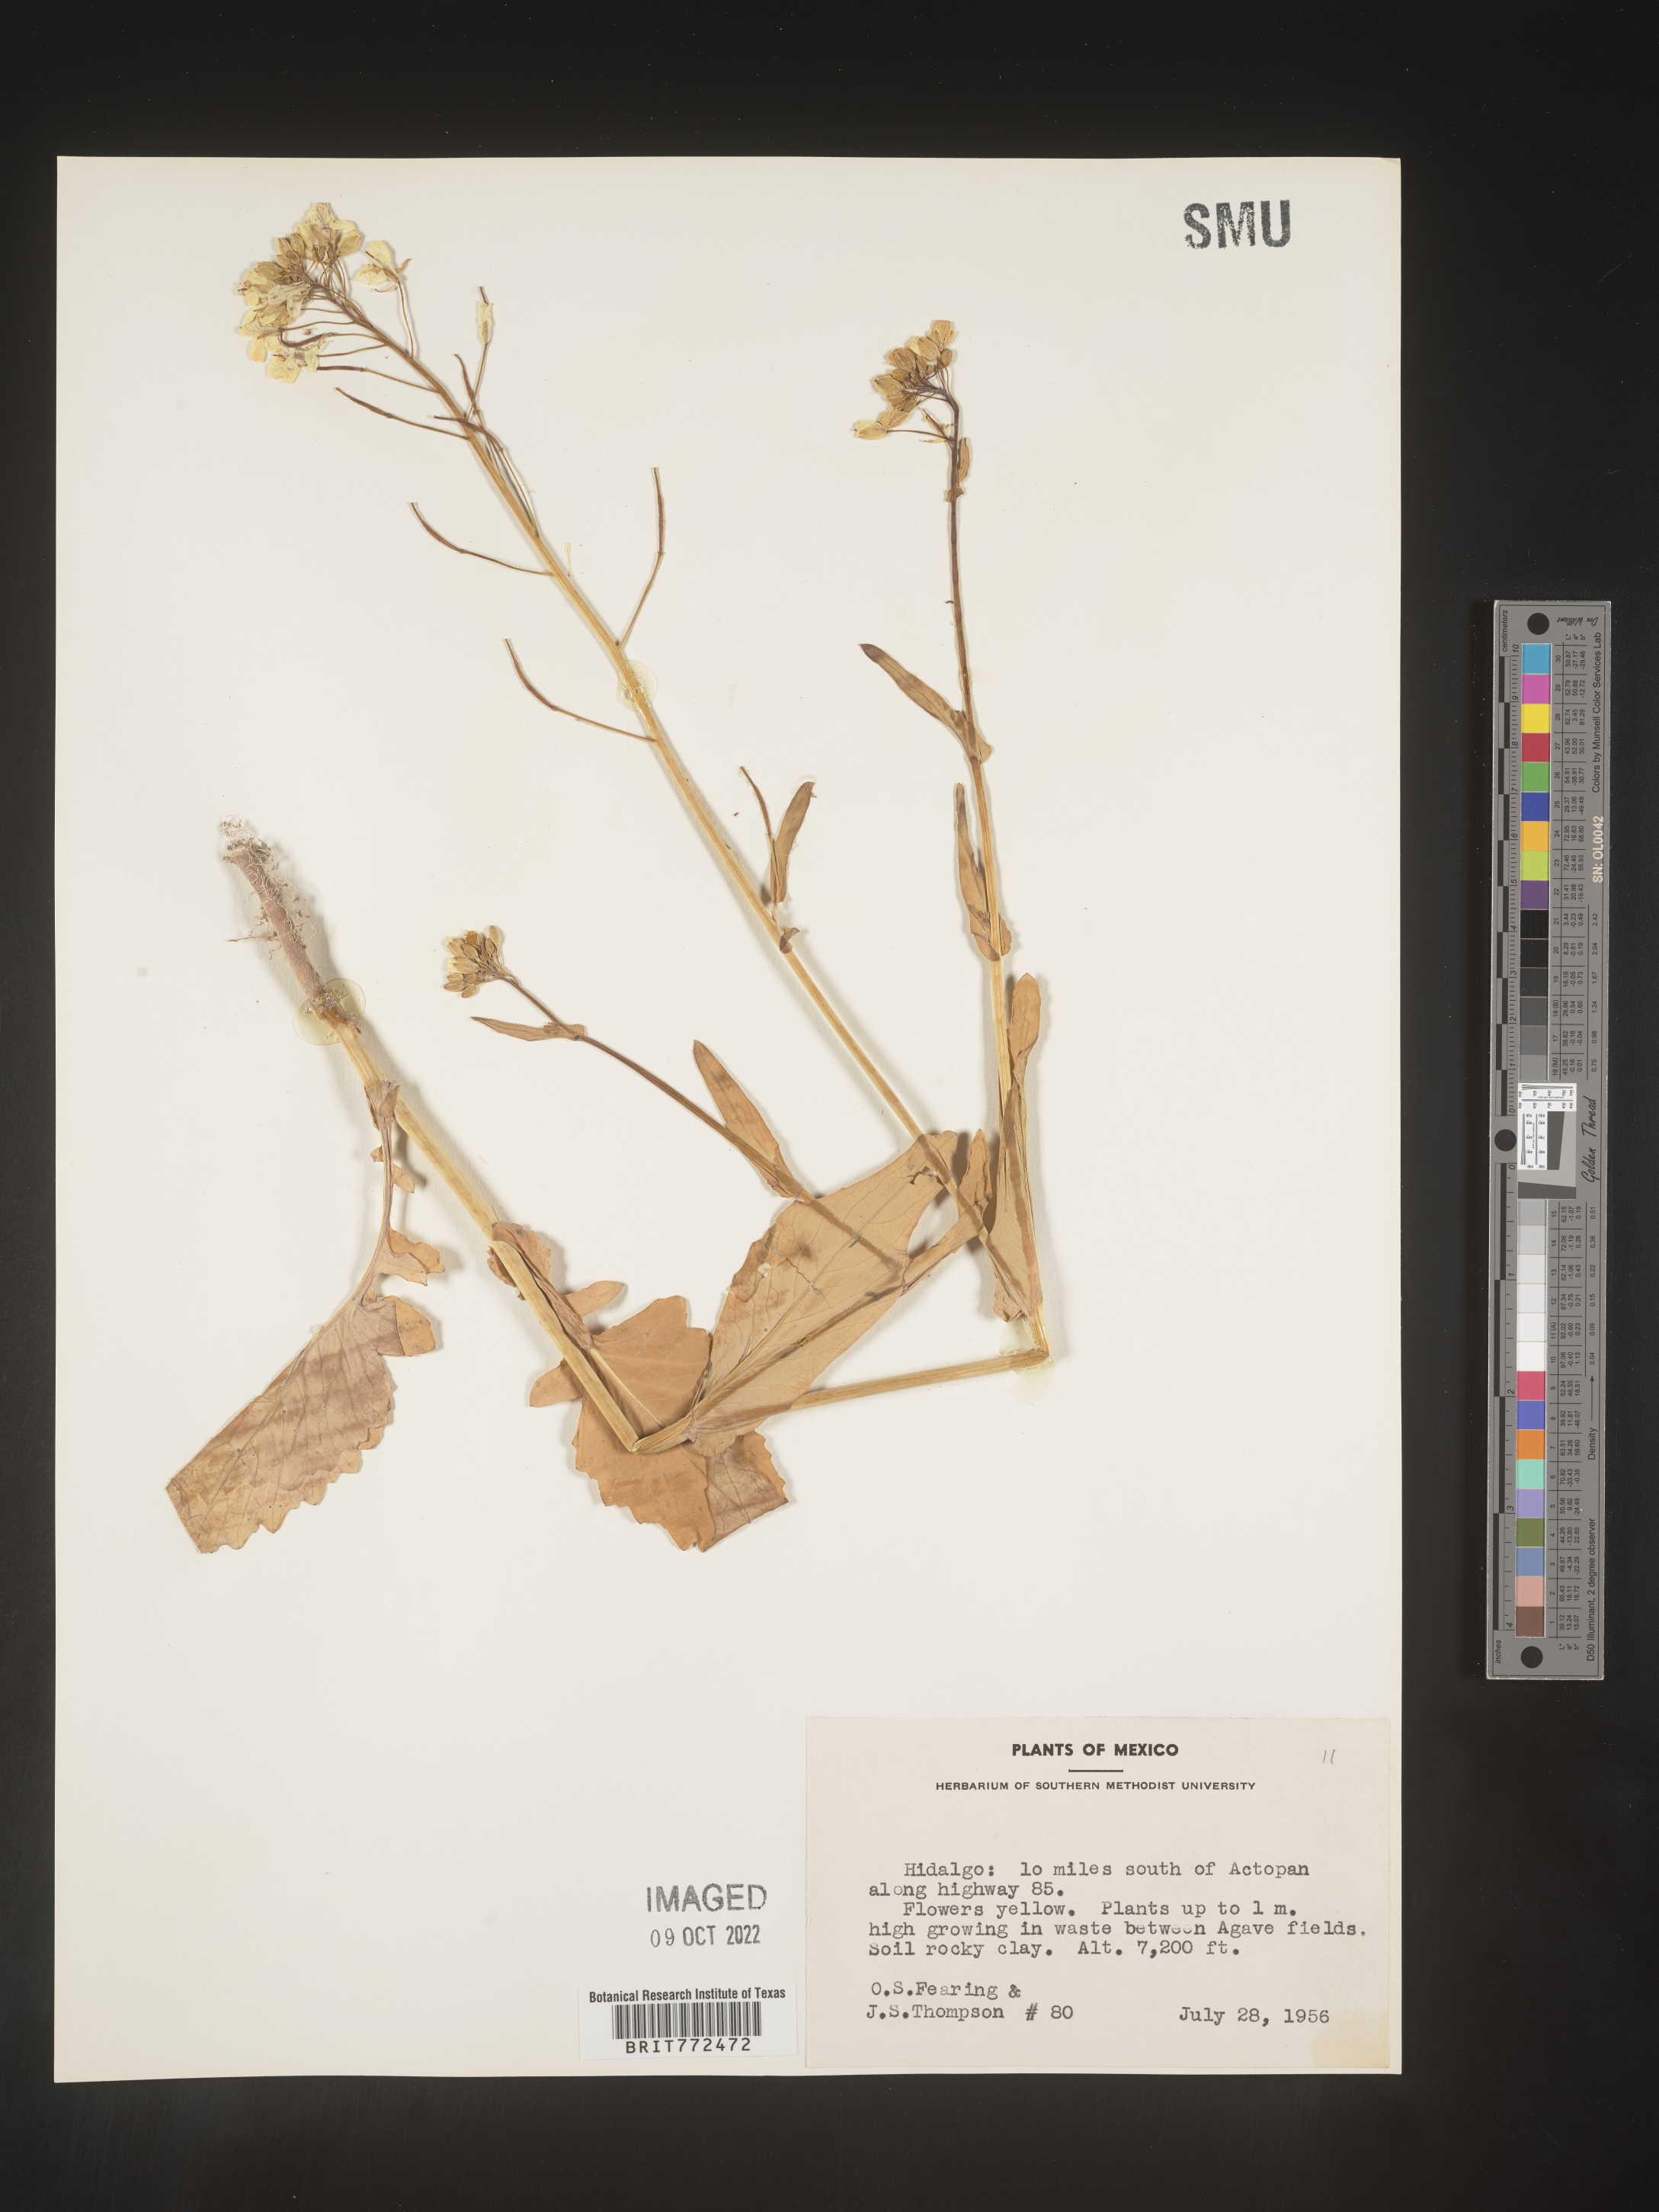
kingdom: Plantae
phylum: Tracheophyta
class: Magnoliopsida
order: Brassicales
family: Brassicaceae
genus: Brassica
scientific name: Brassica
